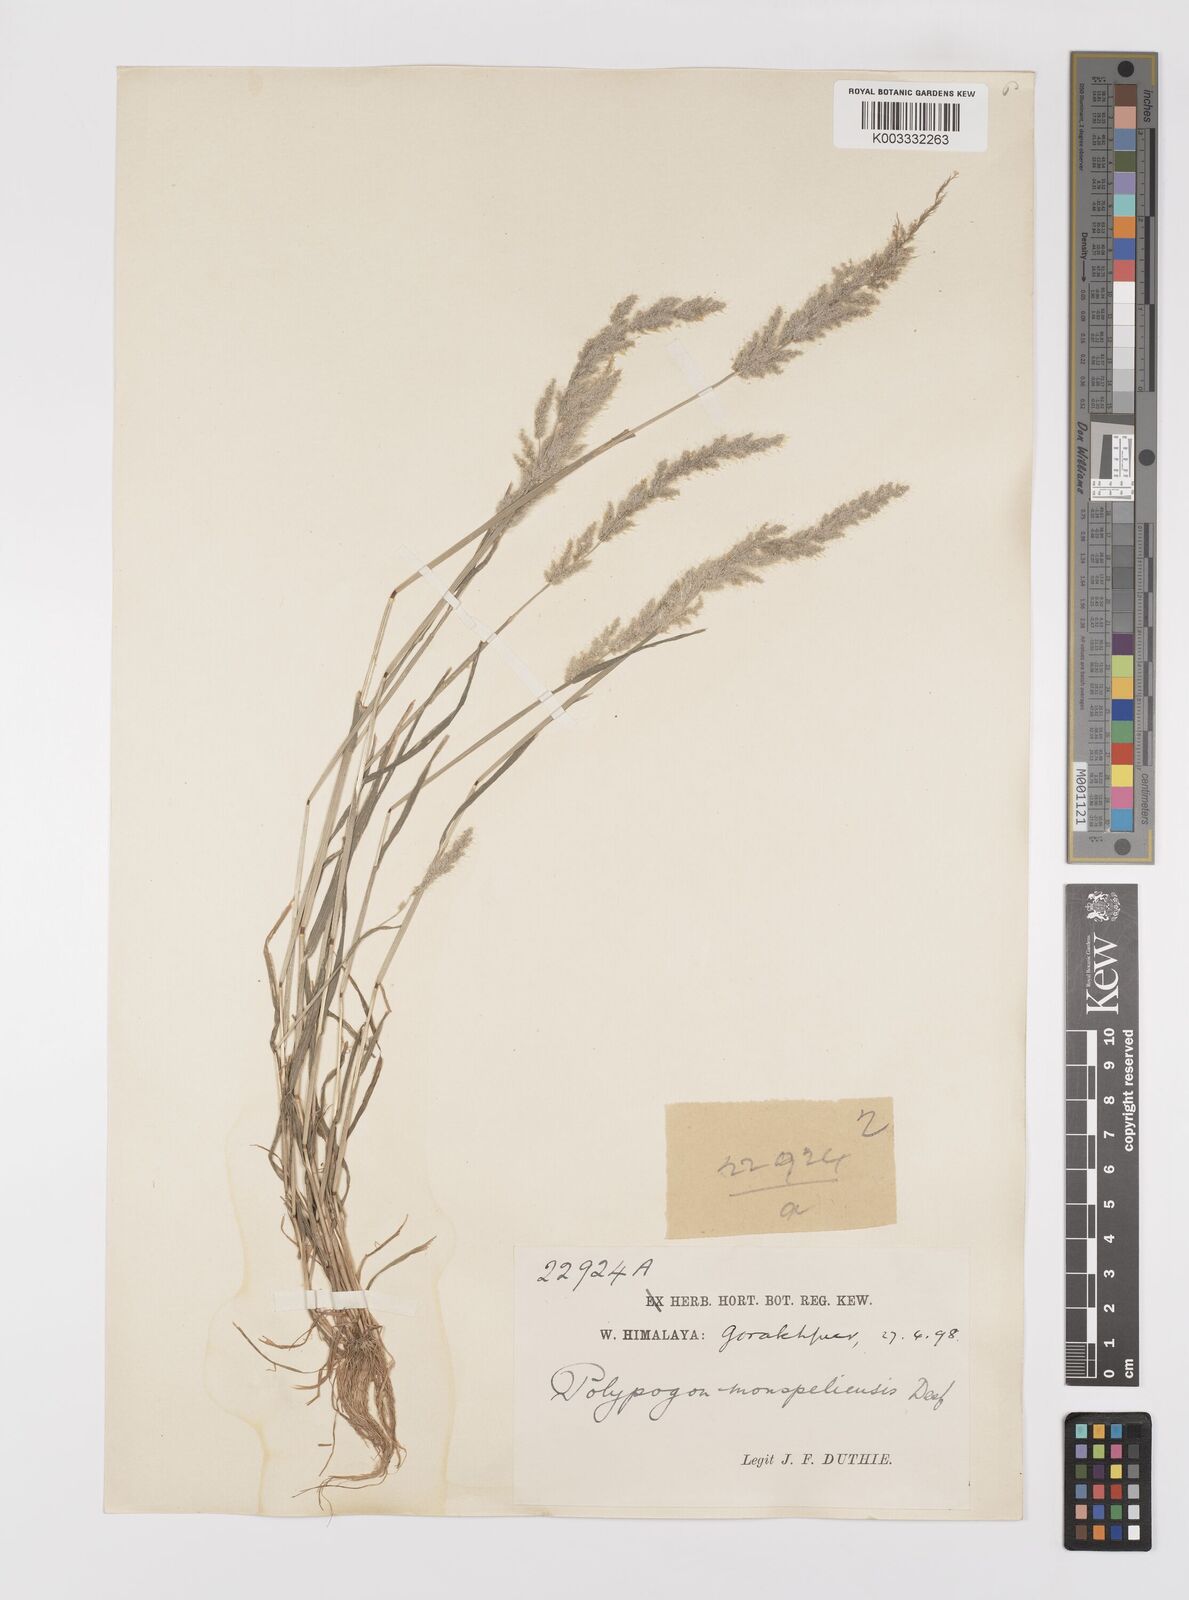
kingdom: Plantae
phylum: Tracheophyta
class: Liliopsida
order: Poales
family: Poaceae
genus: Polypogon
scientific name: Polypogon monspeliensis
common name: Annual rabbitsfoot grass
